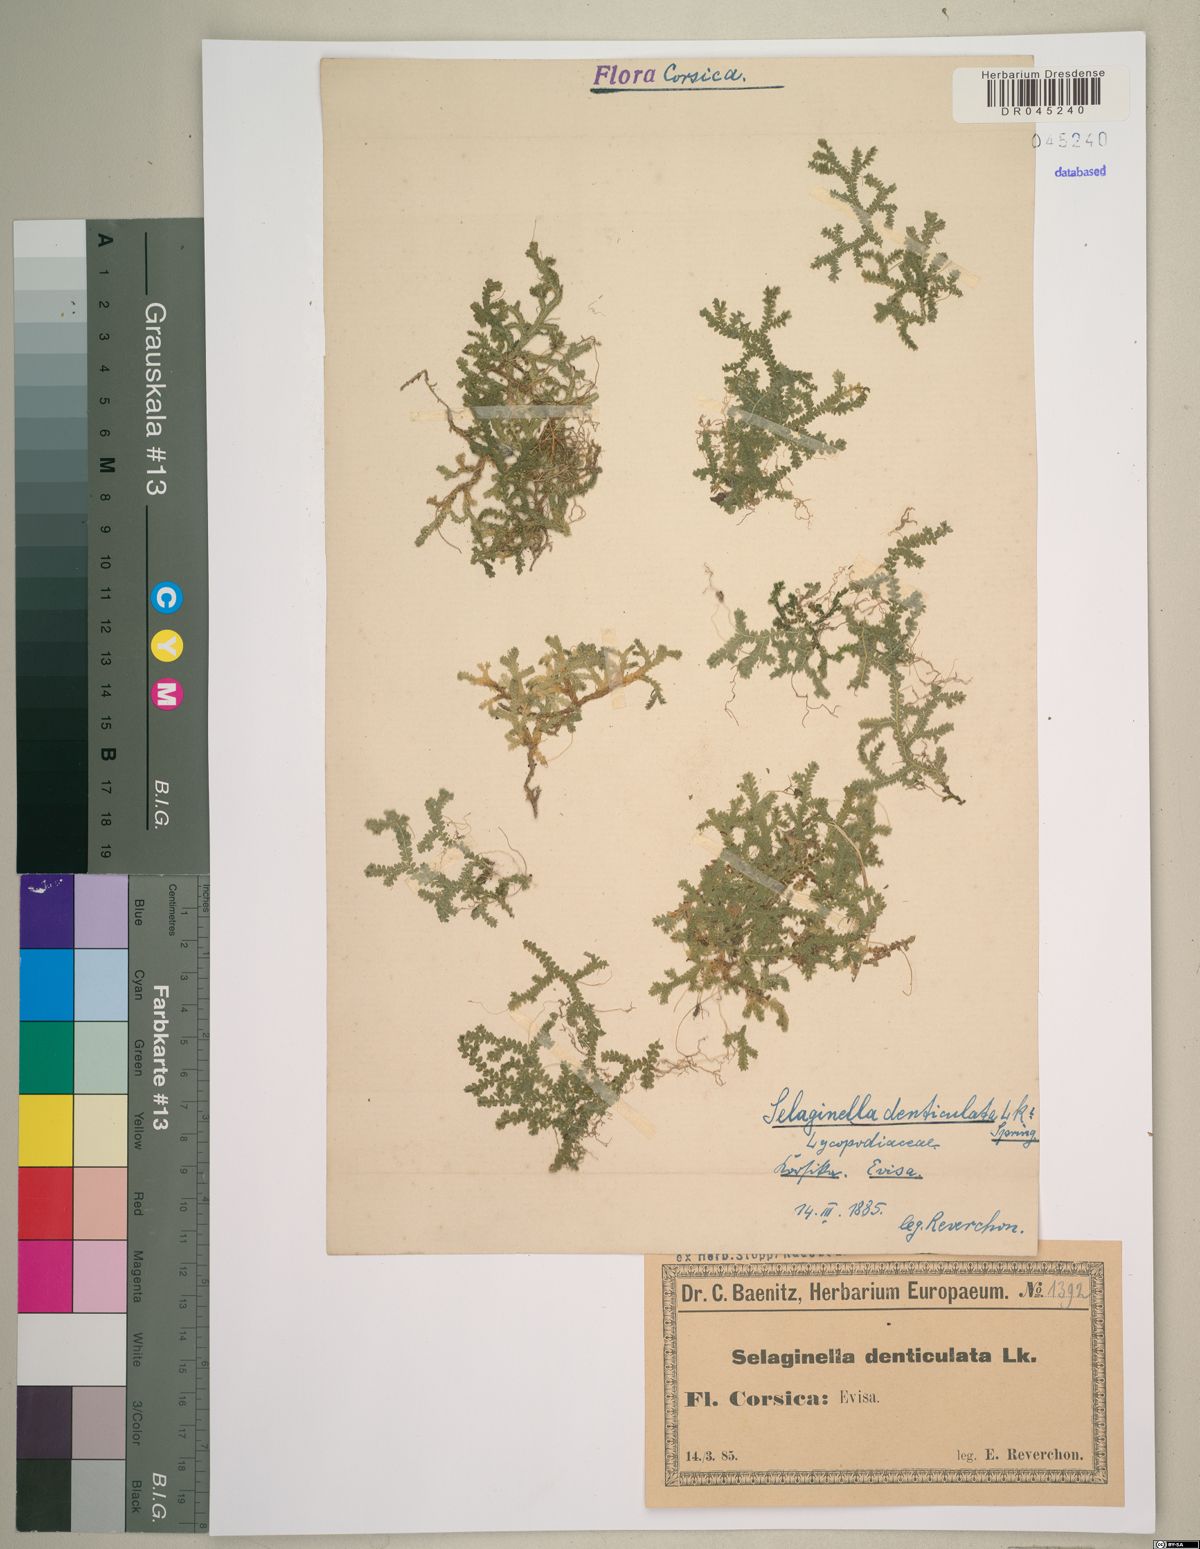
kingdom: Plantae
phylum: Tracheophyta
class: Lycopodiopsida
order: Selaginellales
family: Selaginellaceae
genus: Selaginella
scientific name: Selaginella denticulata
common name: Toothed-leaved clubmoss
